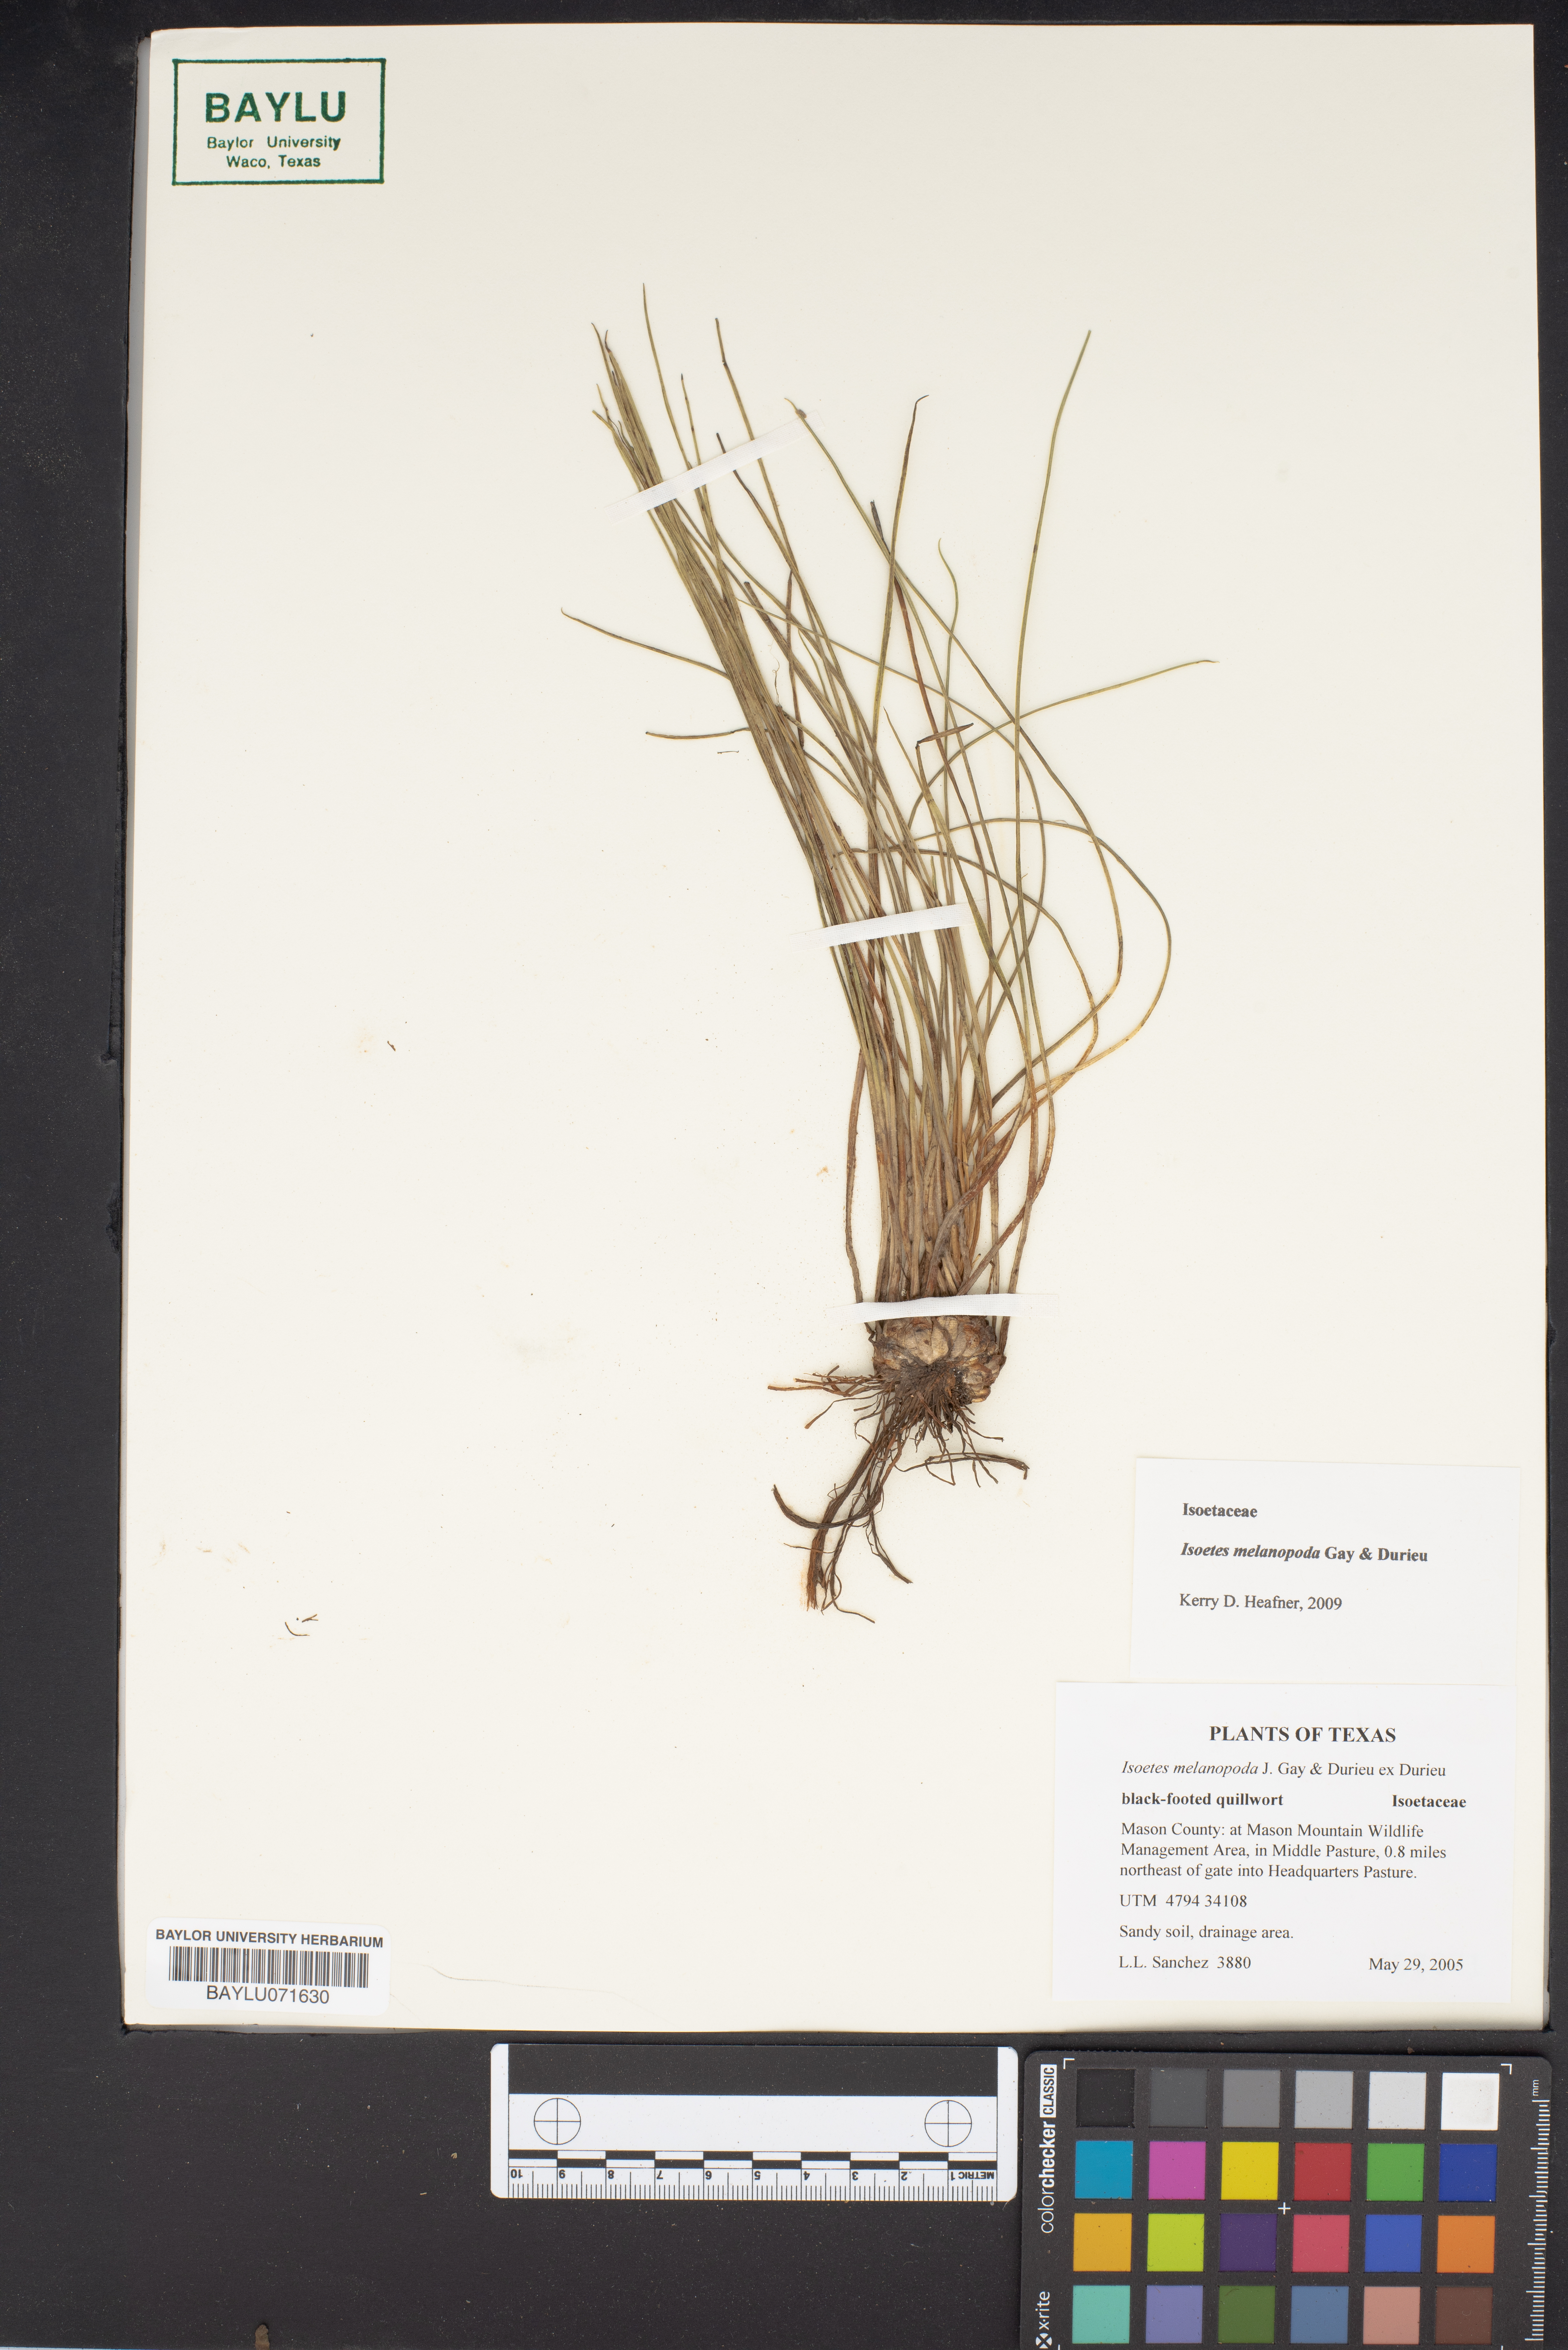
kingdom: Plantae
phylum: Tracheophyta
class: Lycopodiopsida
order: Isoetales
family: Isoetaceae
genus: Isoetes
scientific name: Isoetes melanopoda
